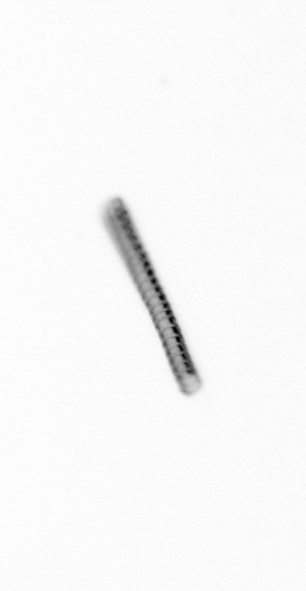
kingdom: Chromista
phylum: Ochrophyta
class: Bacillariophyceae
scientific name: Bacillariophyceae
